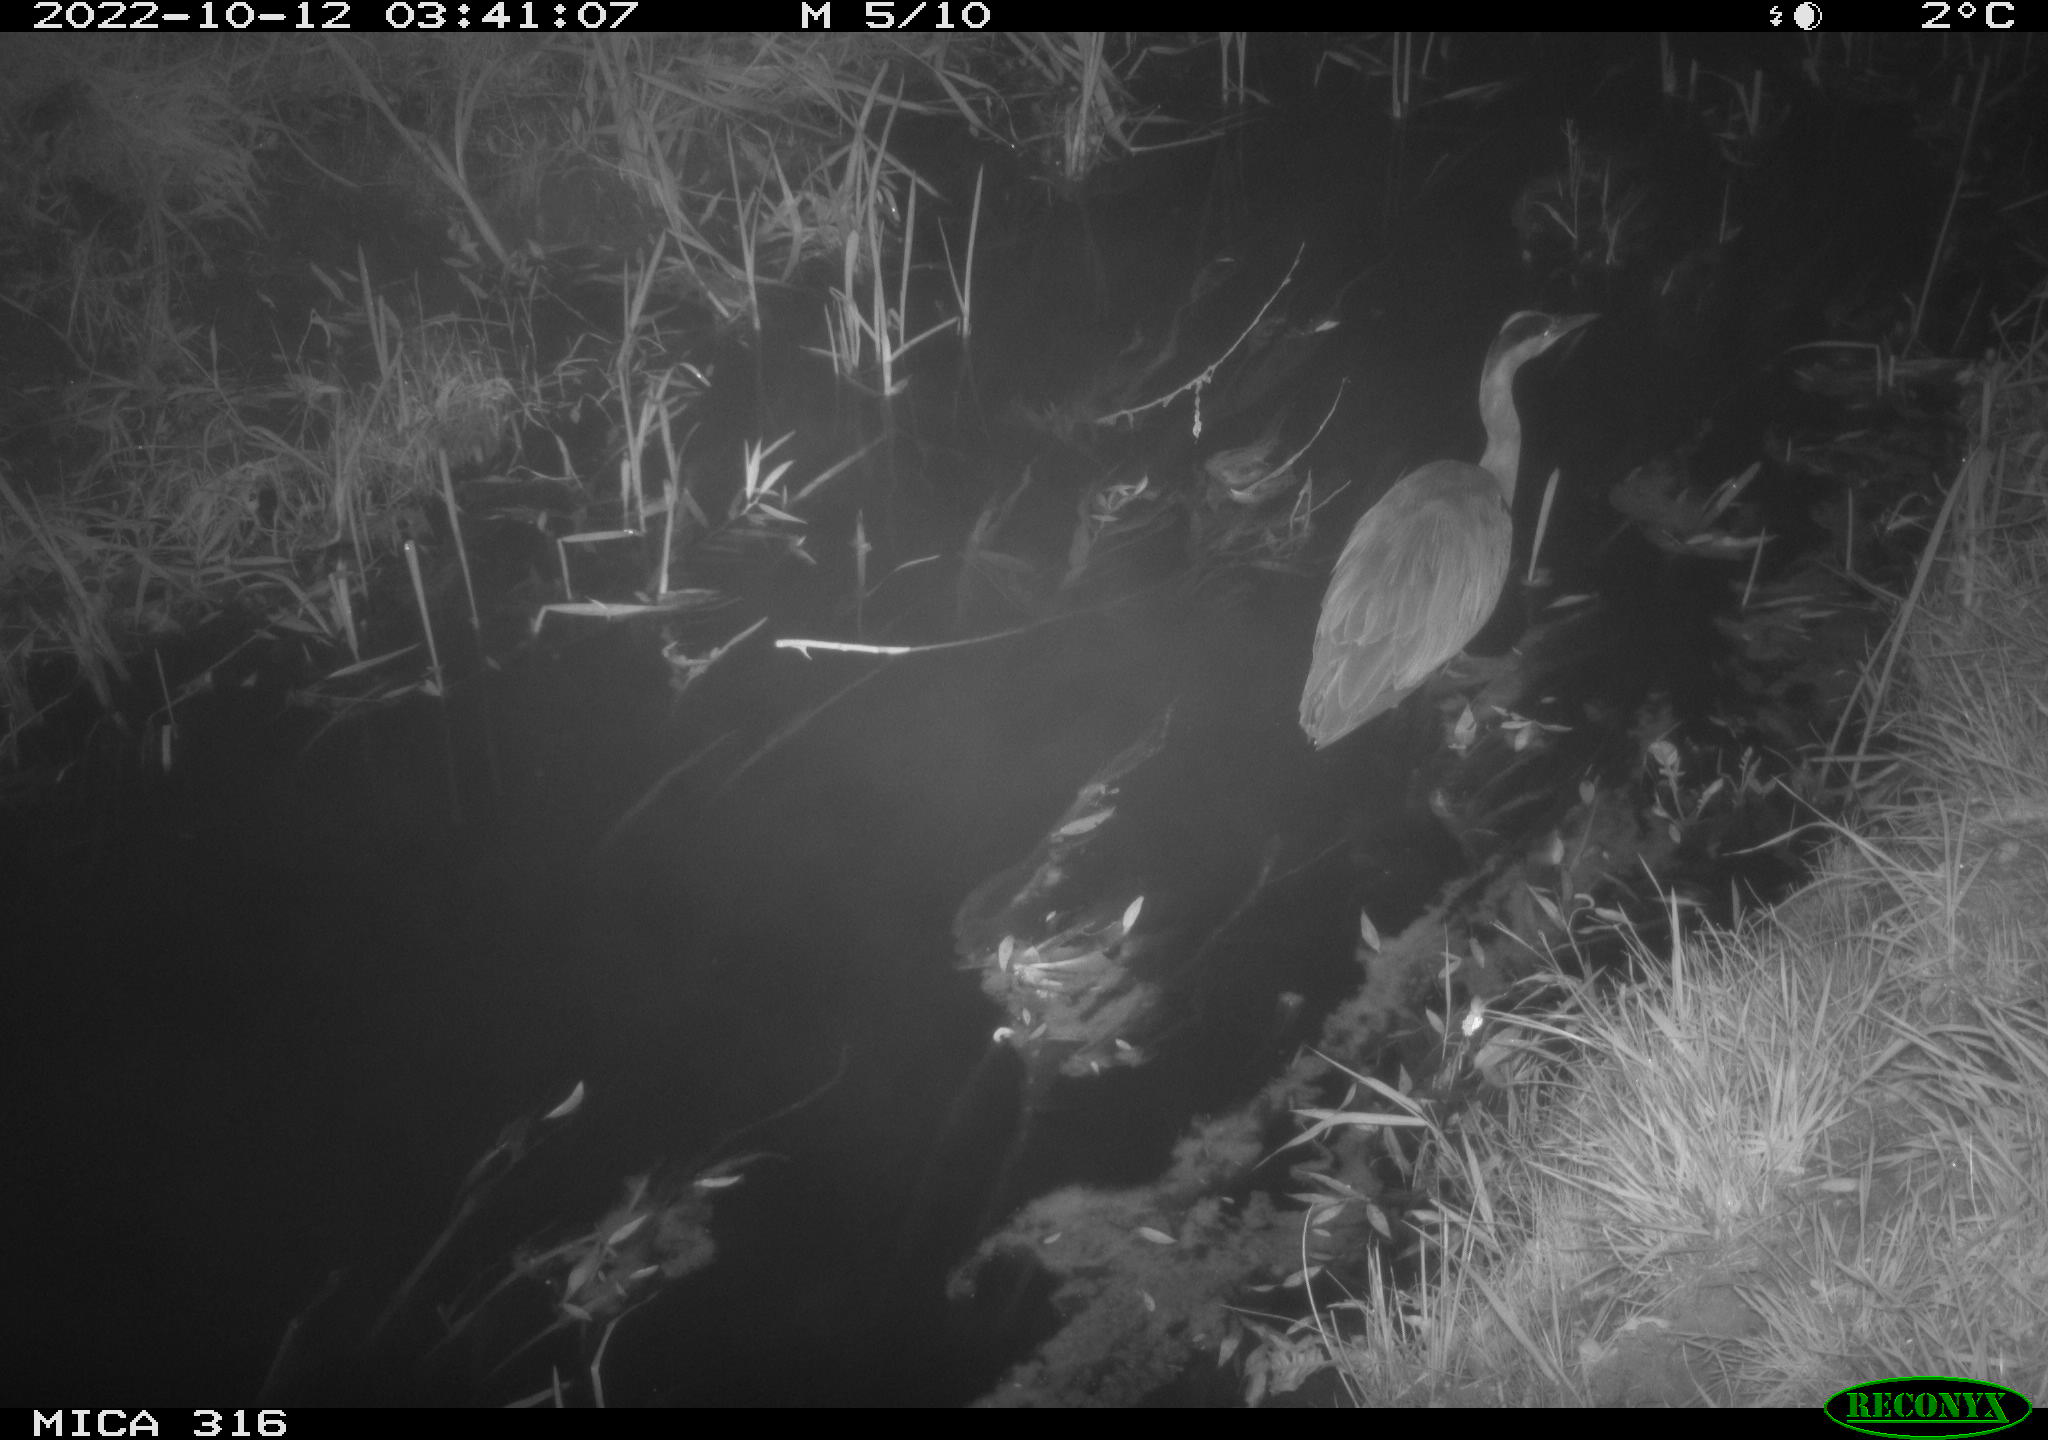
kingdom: Animalia
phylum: Chordata
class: Aves
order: Pelecaniformes
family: Ardeidae
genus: Ardea
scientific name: Ardea cinerea
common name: Grey heron
